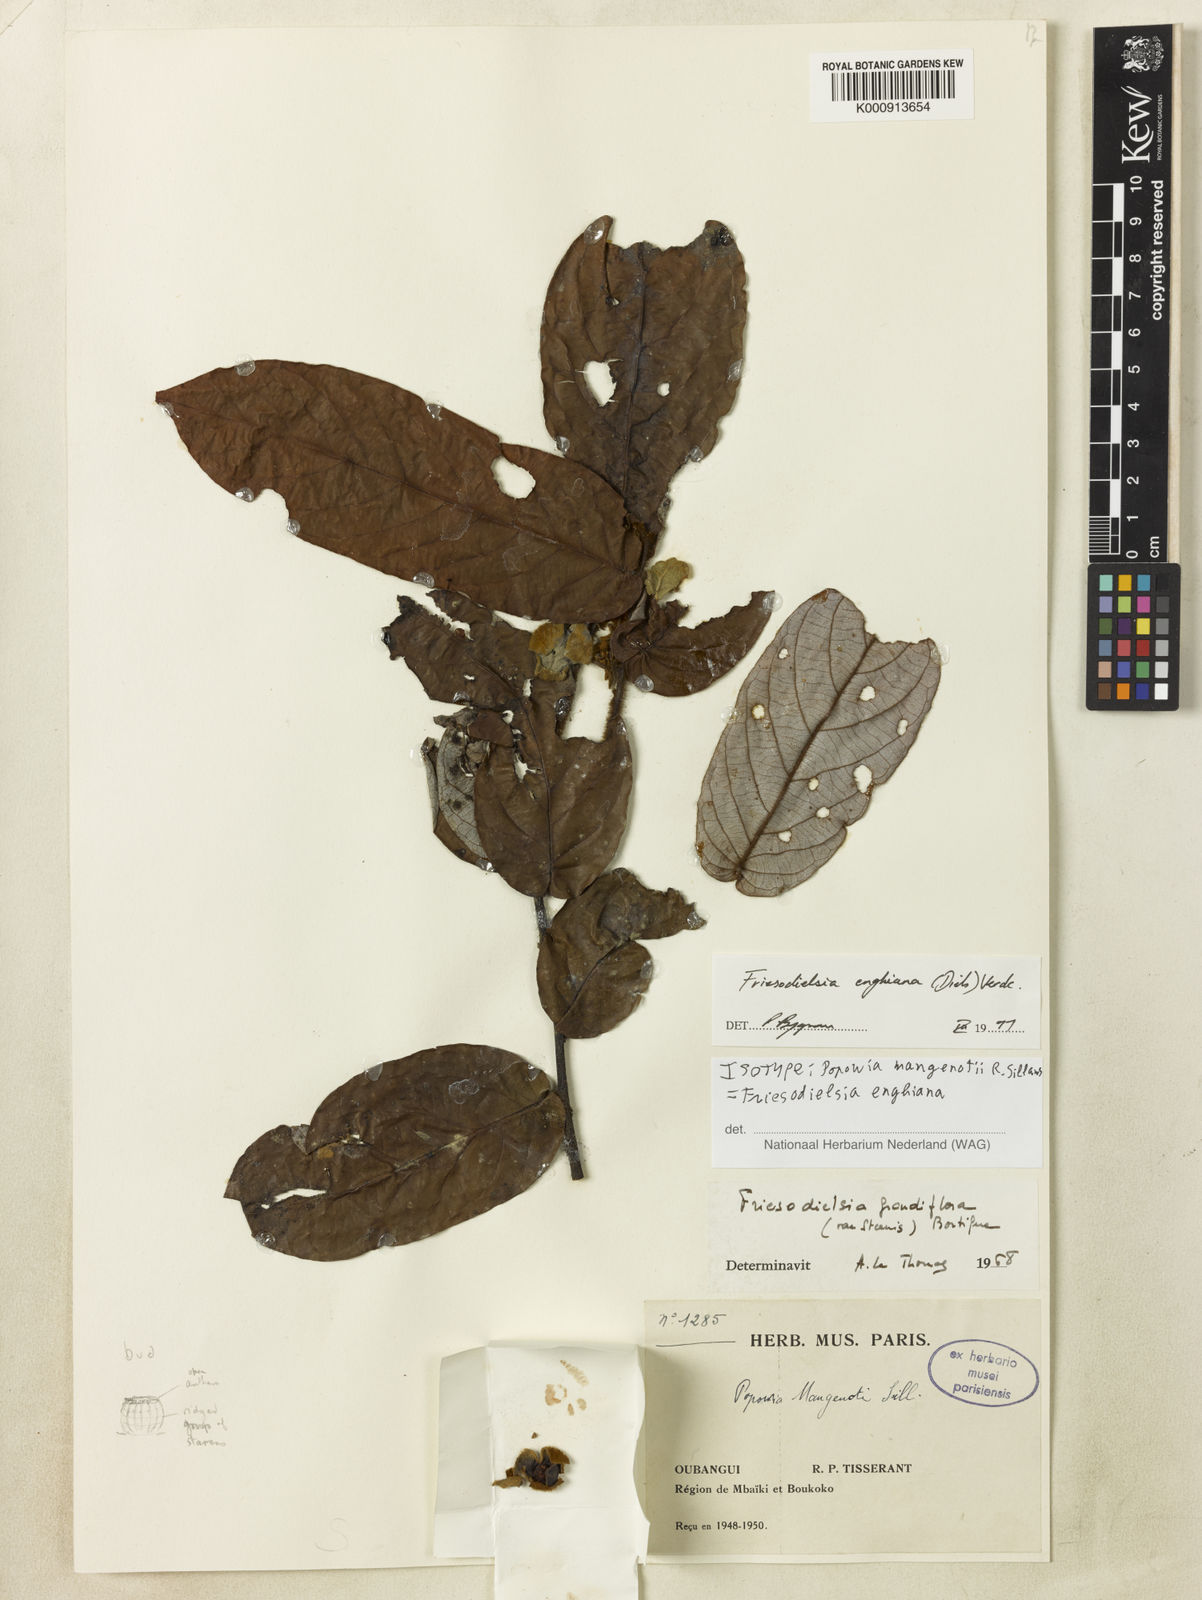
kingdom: Plantae
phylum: Tracheophyta
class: Magnoliopsida
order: Magnoliales
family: Annonaceae
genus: Friesodielsia
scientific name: Friesodielsia enghiana
